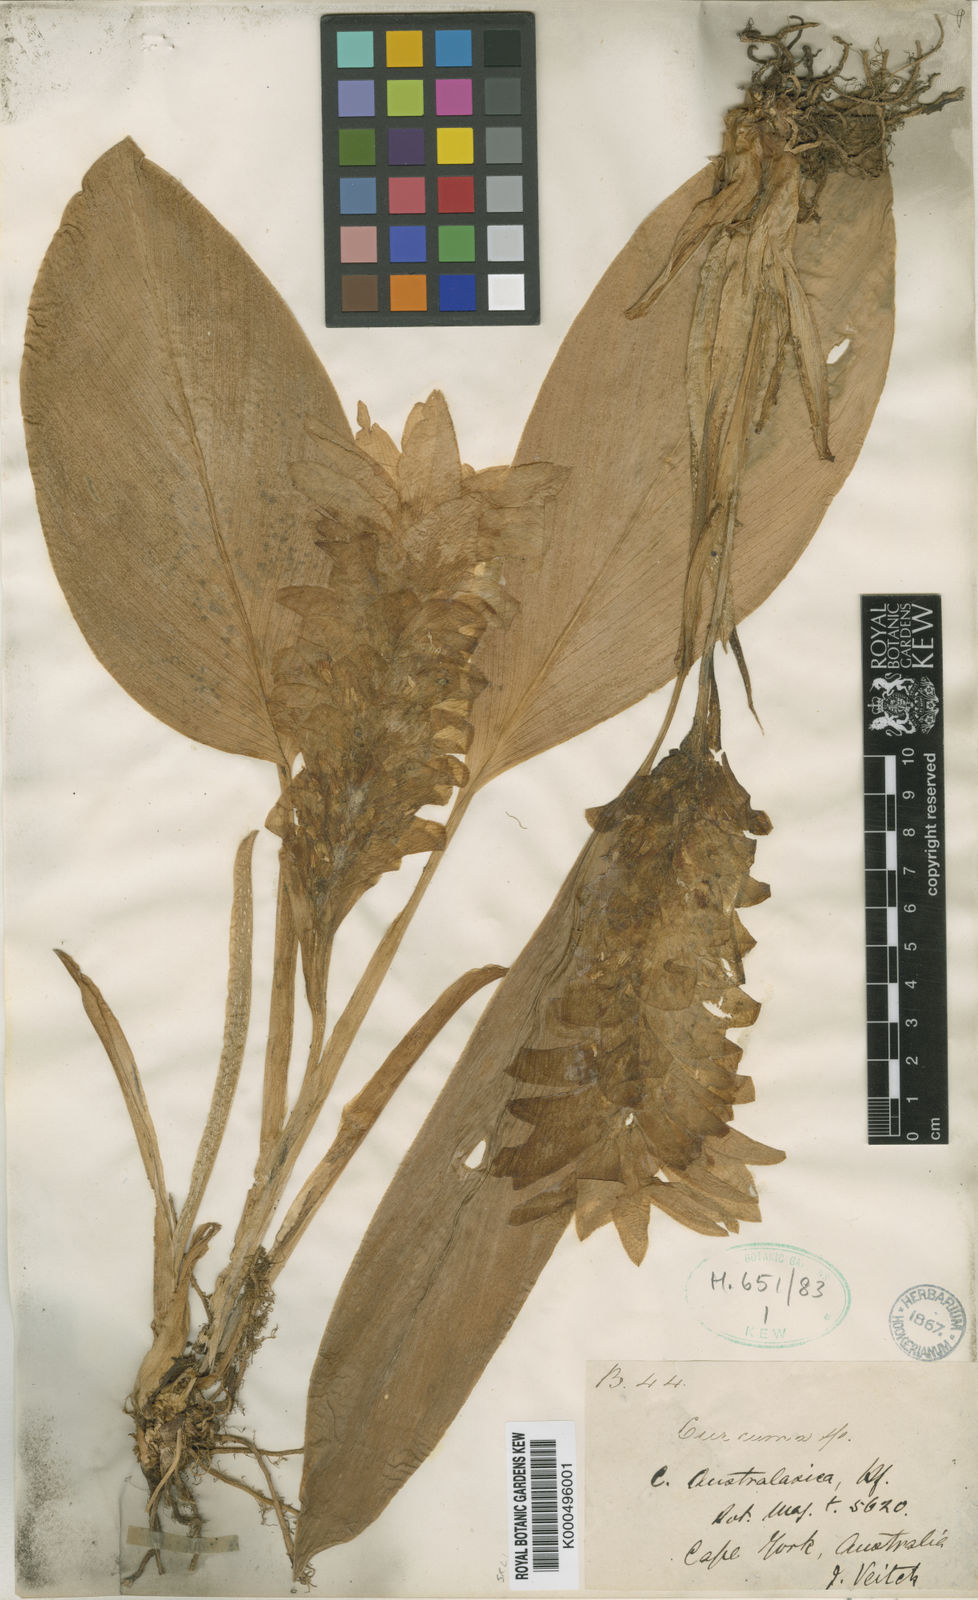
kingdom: Plantae
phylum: Tracheophyta
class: Liliopsida
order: Zingiberales
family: Zingiberaceae
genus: Curcuma
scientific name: Curcuma australasica
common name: Australian wild turmeric
